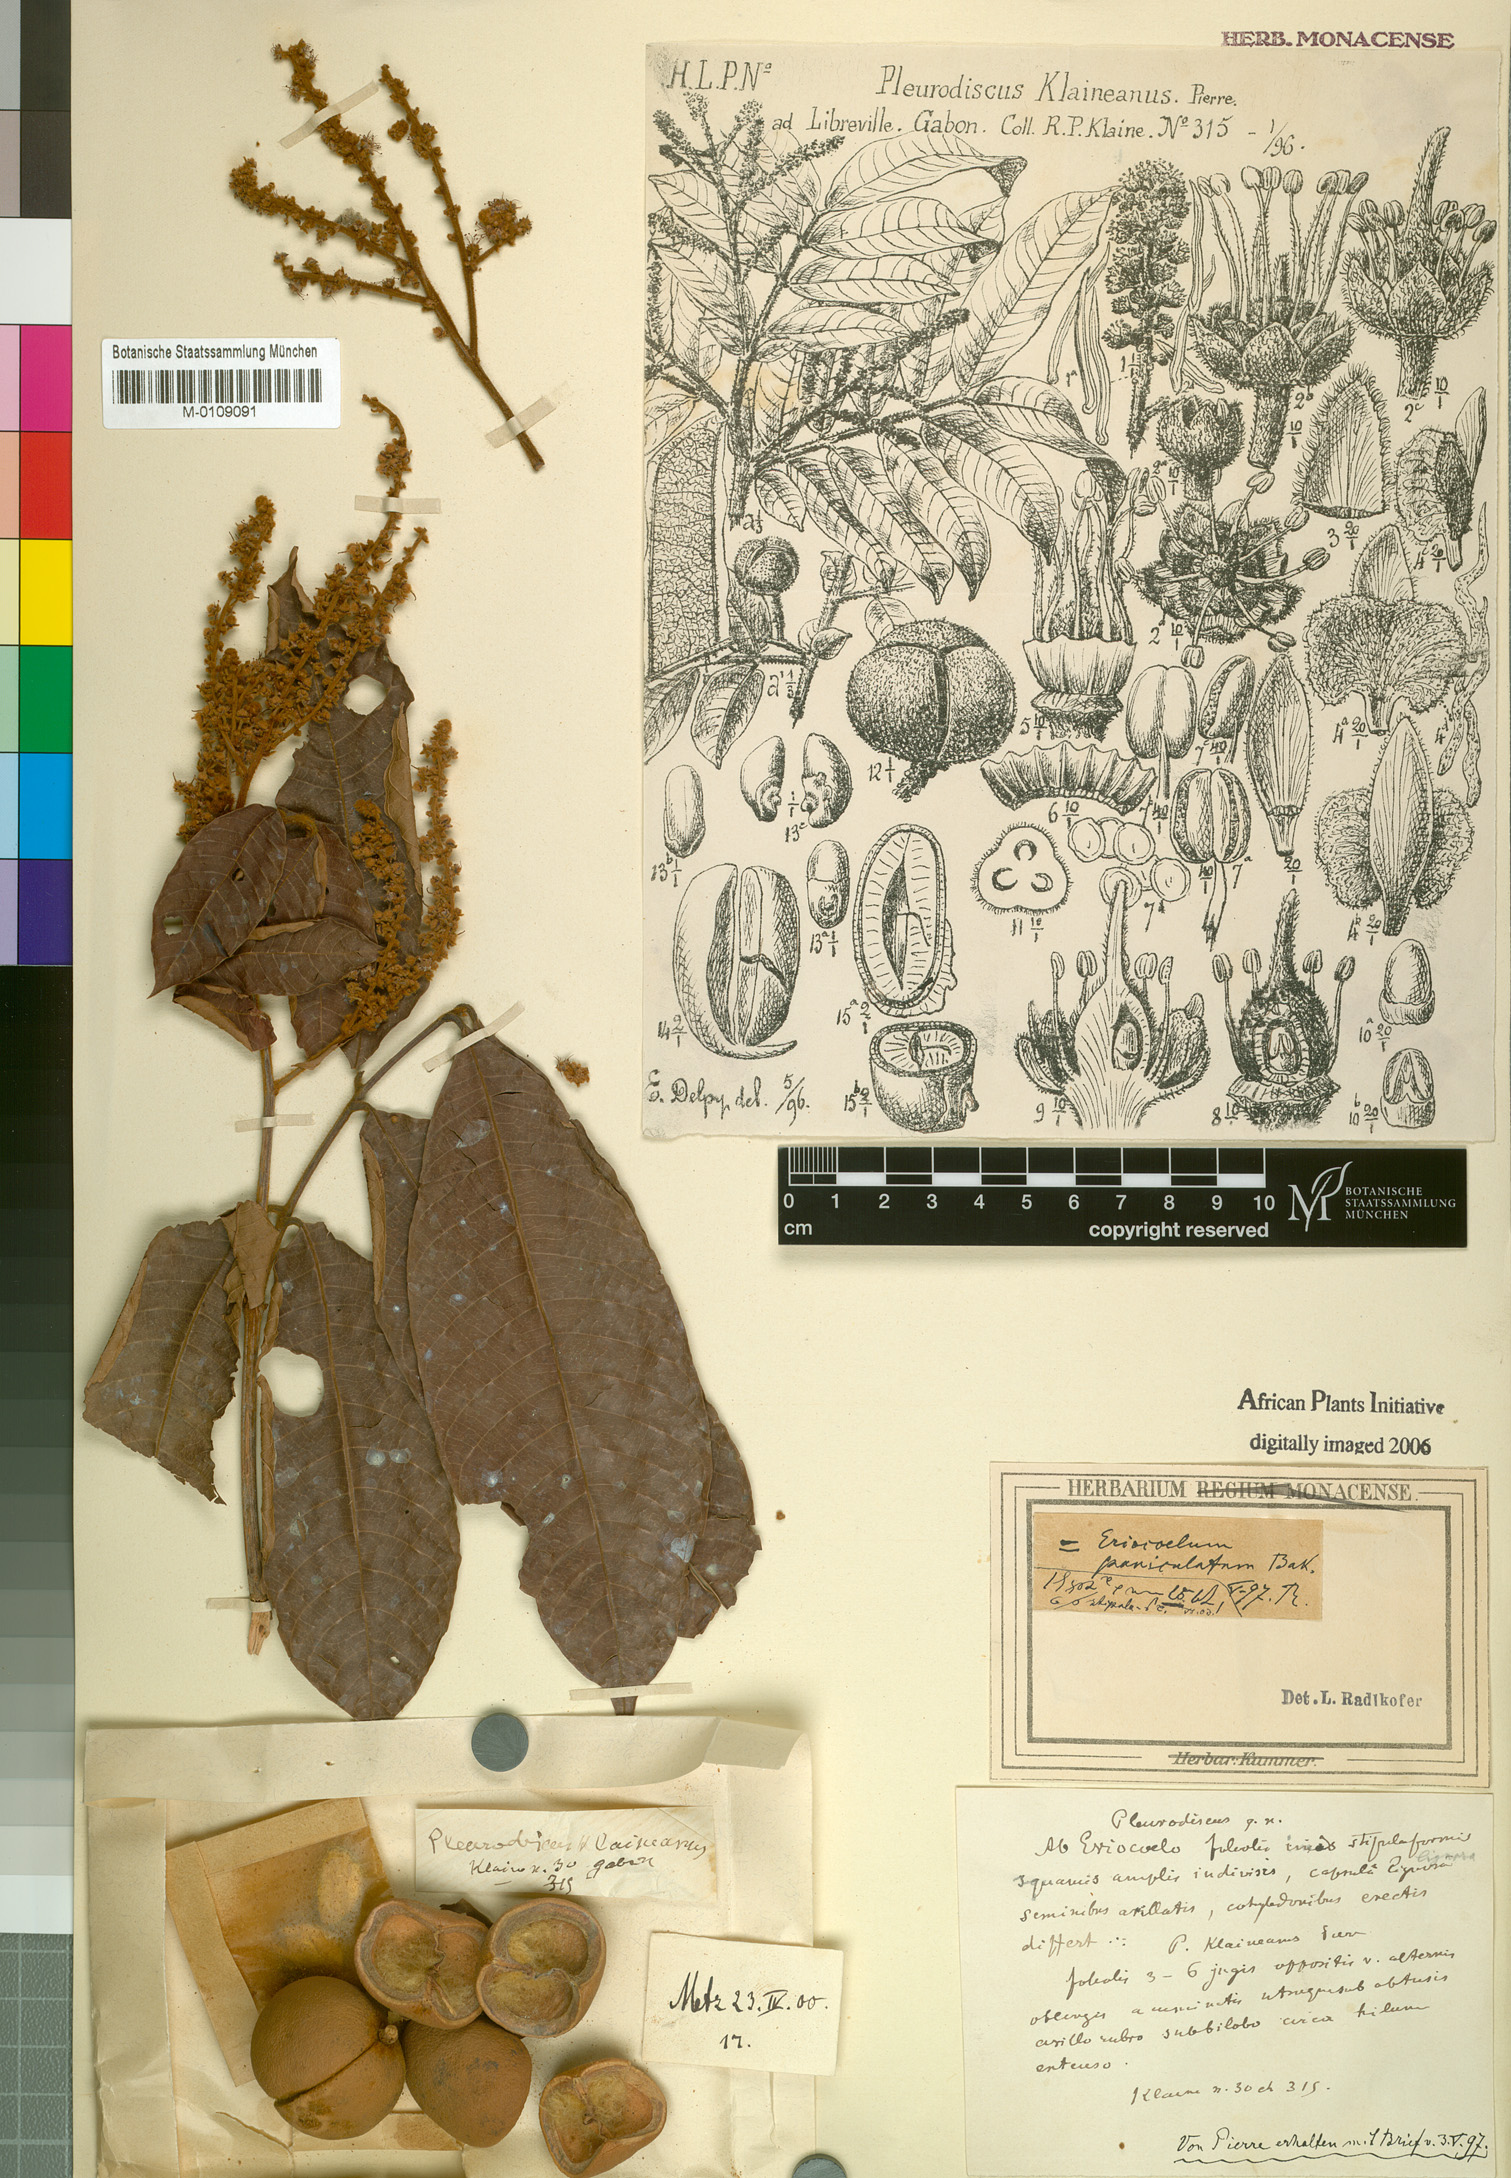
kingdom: Plantae
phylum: Tracheophyta
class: Magnoliopsida
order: Sapindales
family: Sapindaceae
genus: Eriocoelum
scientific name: Eriocoelum paniculatum
